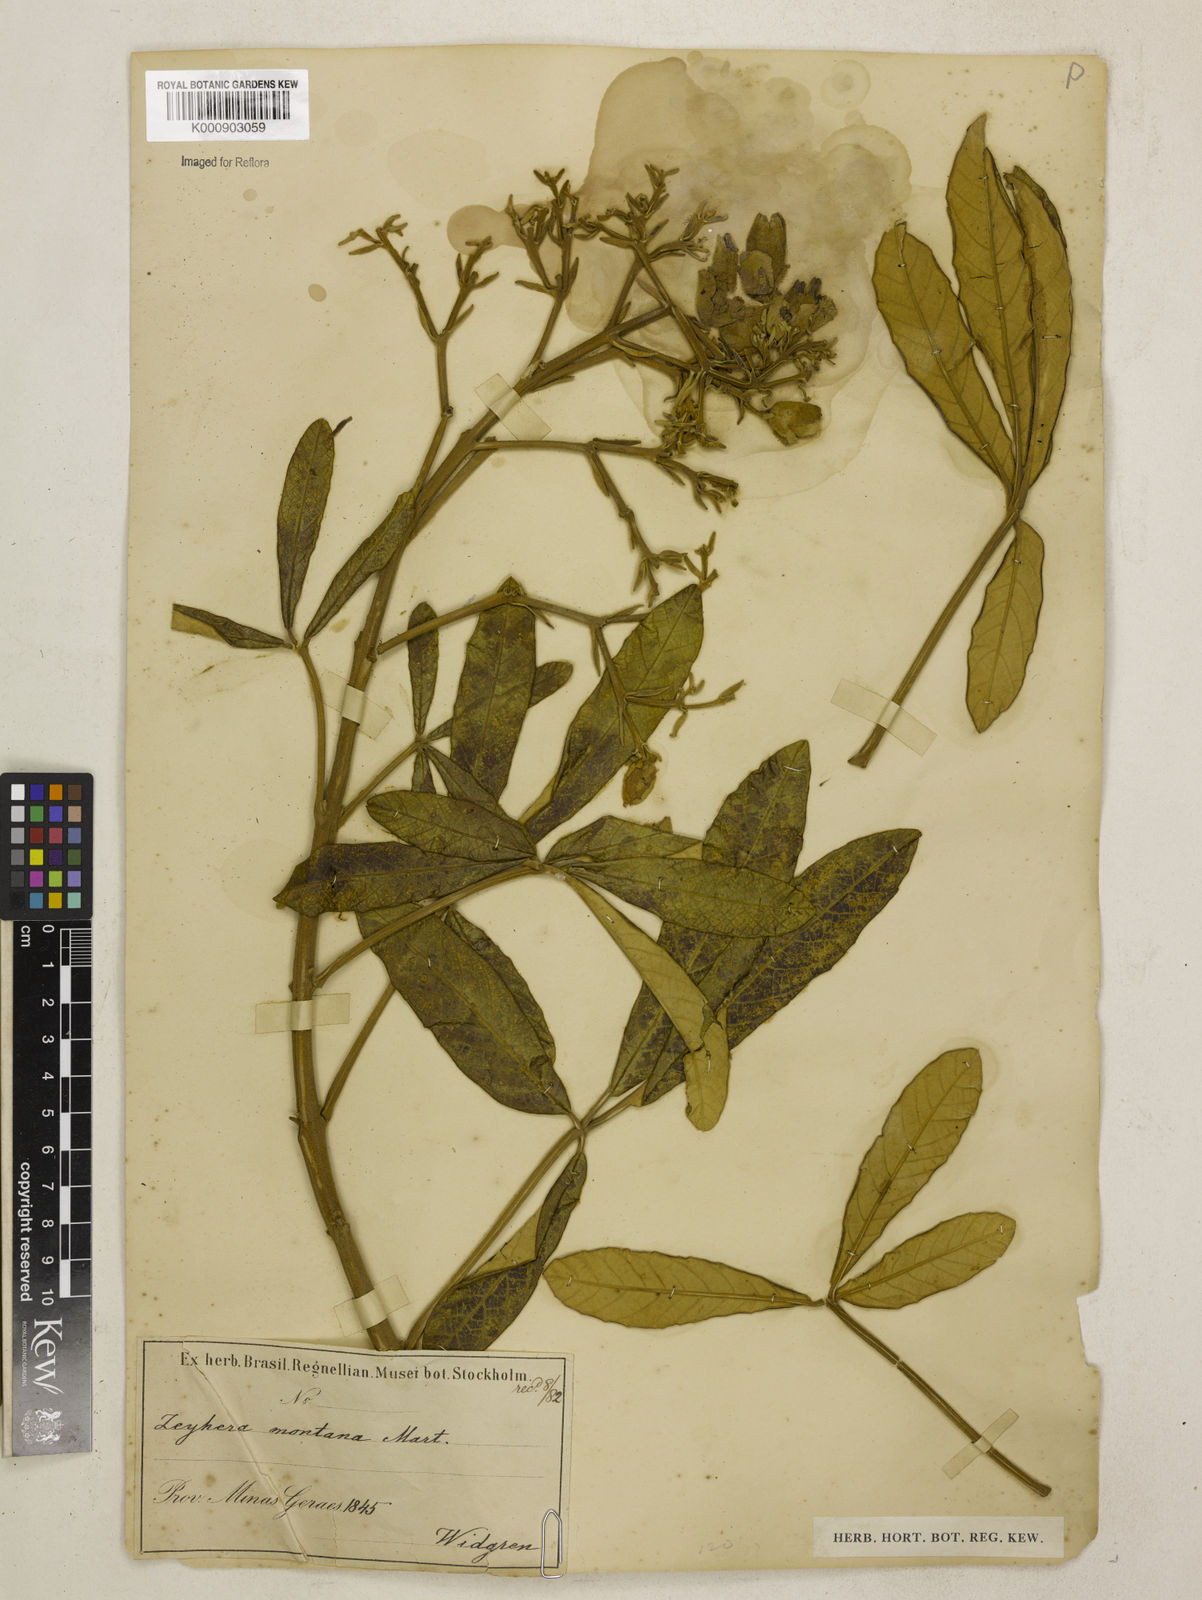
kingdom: Plantae
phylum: Tracheophyta
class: Magnoliopsida
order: Lamiales
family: Bignoniaceae
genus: Zeyheria
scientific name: Zeyheria
